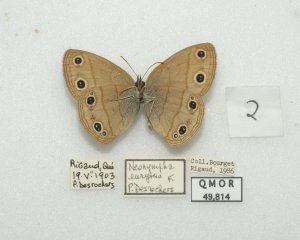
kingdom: Animalia
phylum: Arthropoda
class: Insecta
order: Lepidoptera
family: Nymphalidae
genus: Euptychia
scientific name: Euptychia cymela
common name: Little Wood Satyr
